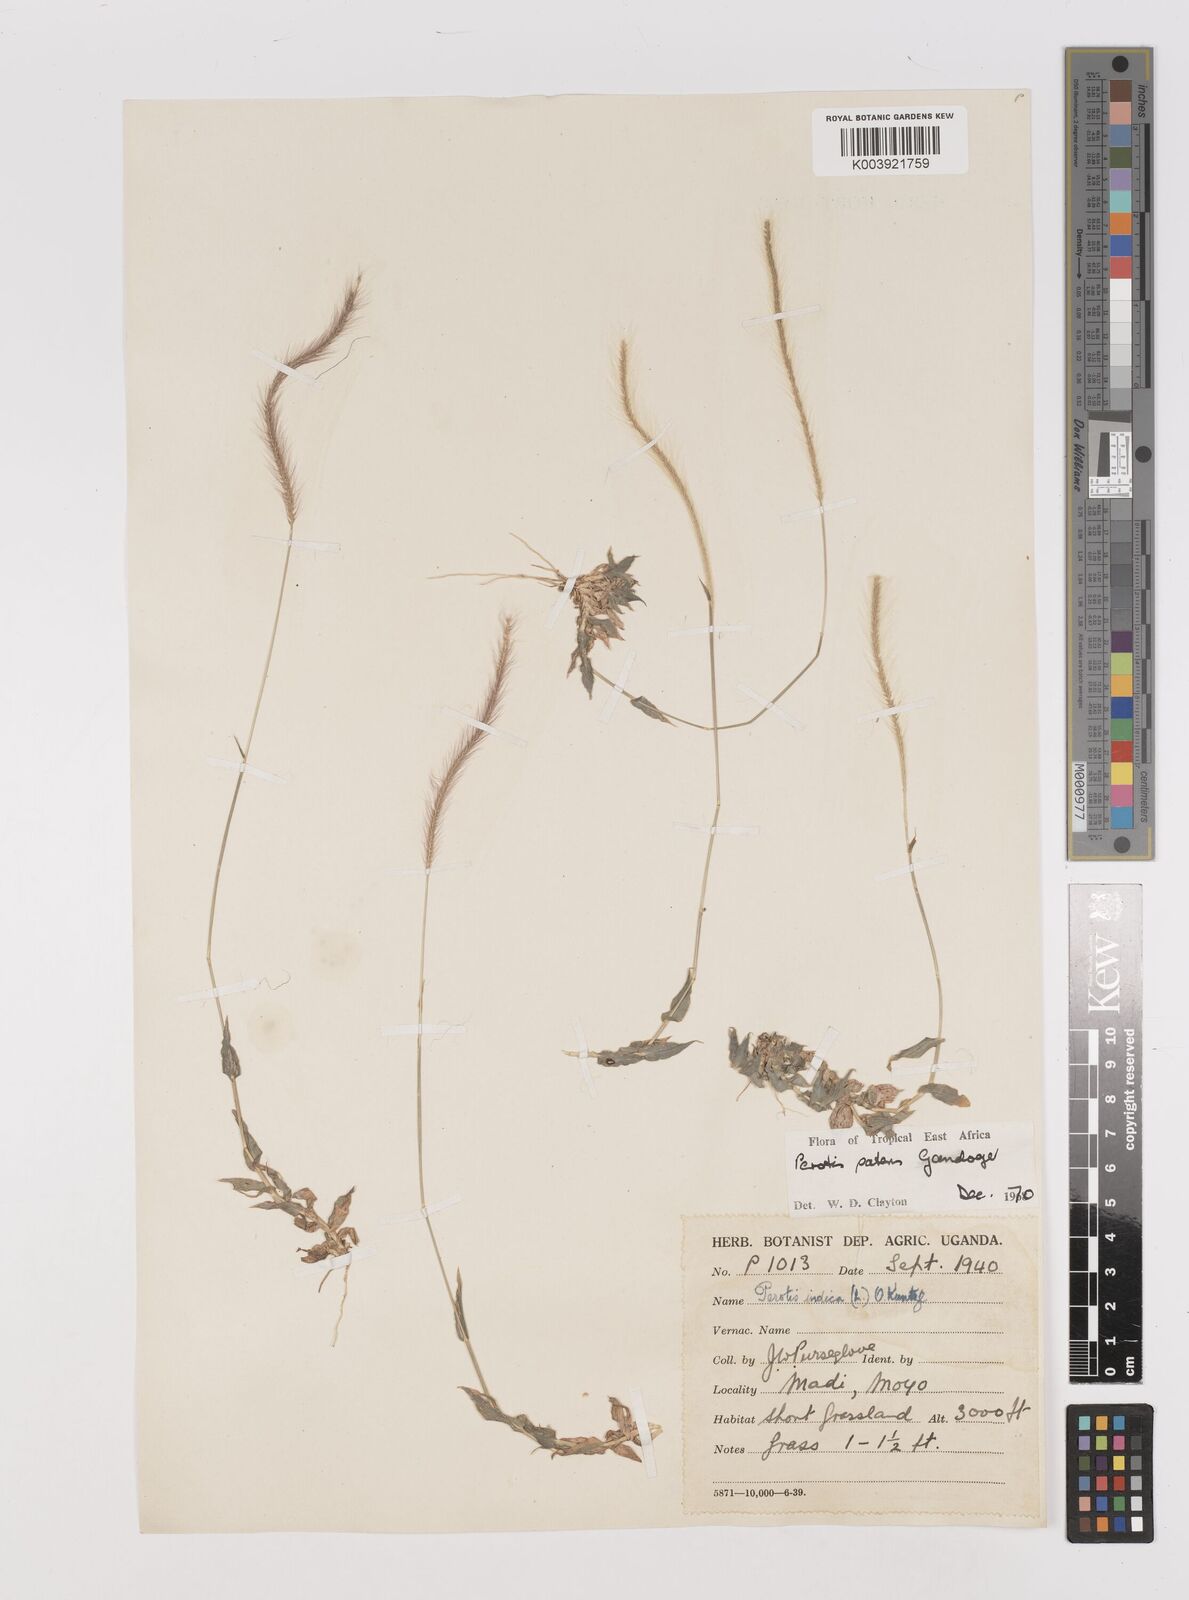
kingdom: Plantae
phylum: Tracheophyta
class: Liliopsida
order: Poales
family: Poaceae
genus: Perotis
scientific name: Perotis patens
